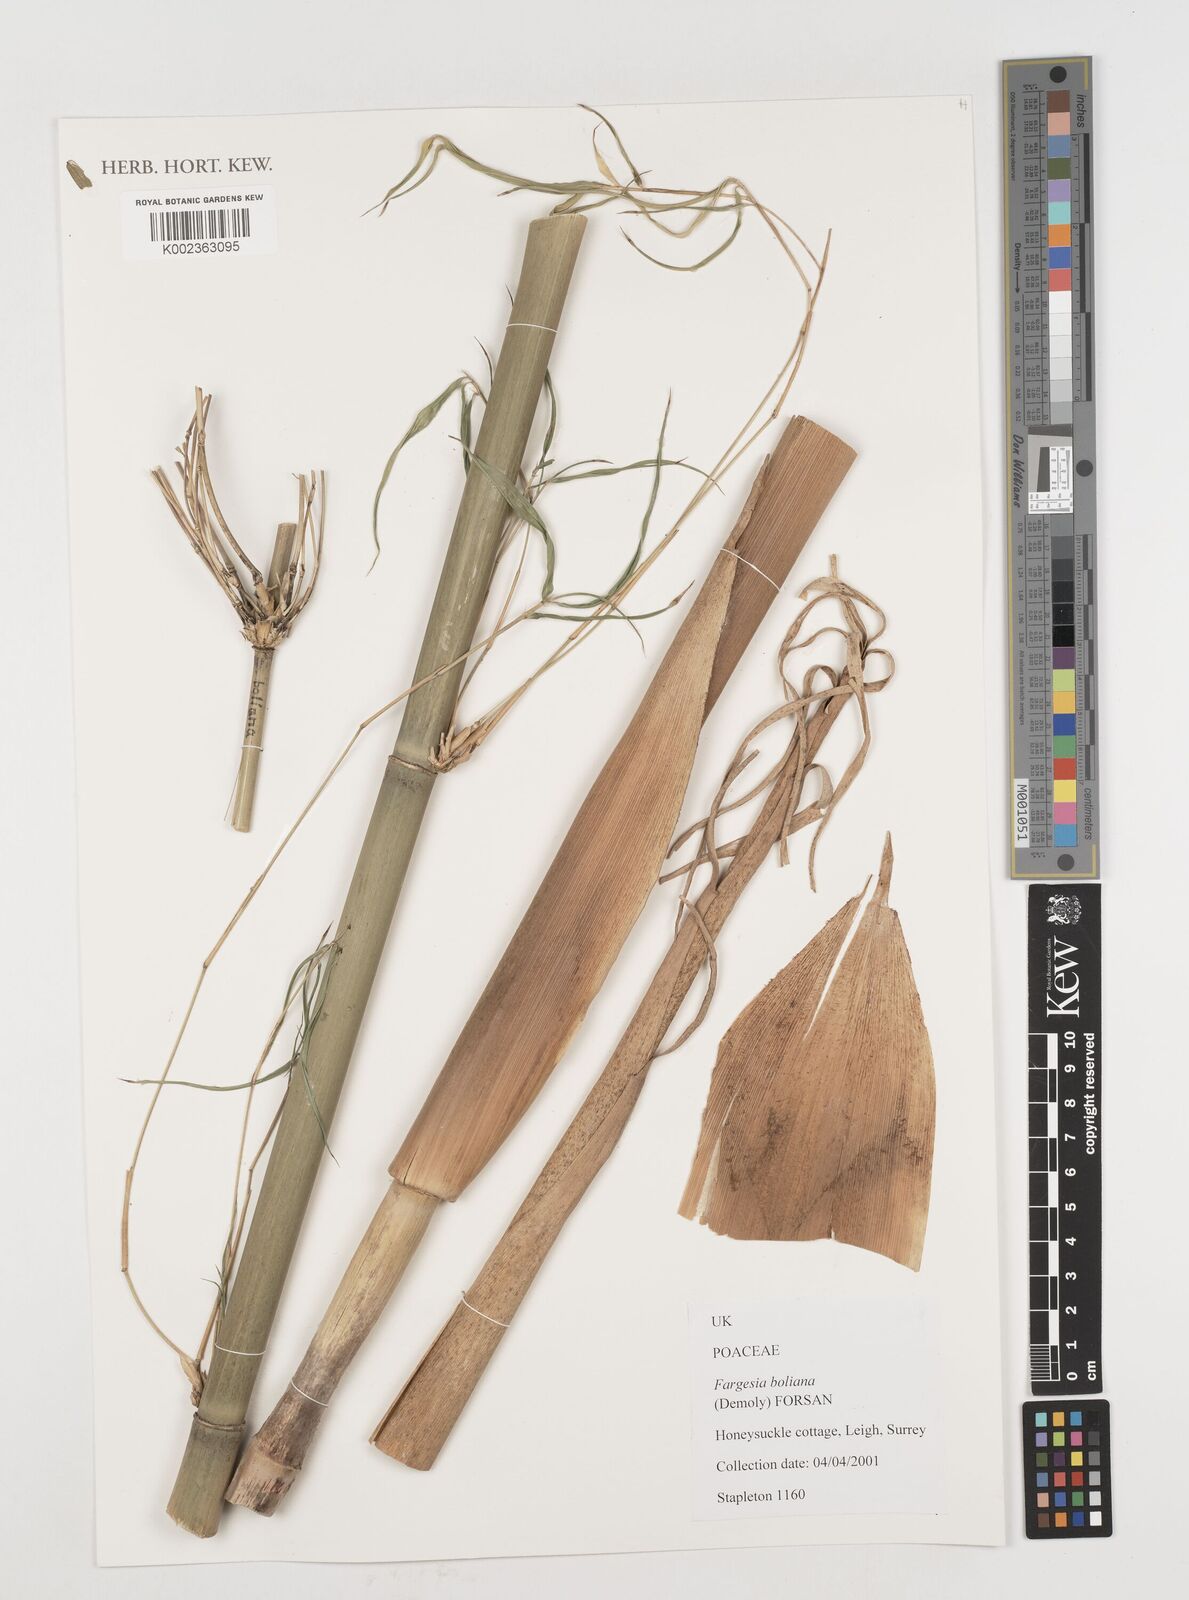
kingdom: Plantae
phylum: Tracheophyta
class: Liliopsida
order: Poales
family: Poaceae
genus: Fargesia
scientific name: Fargesia
